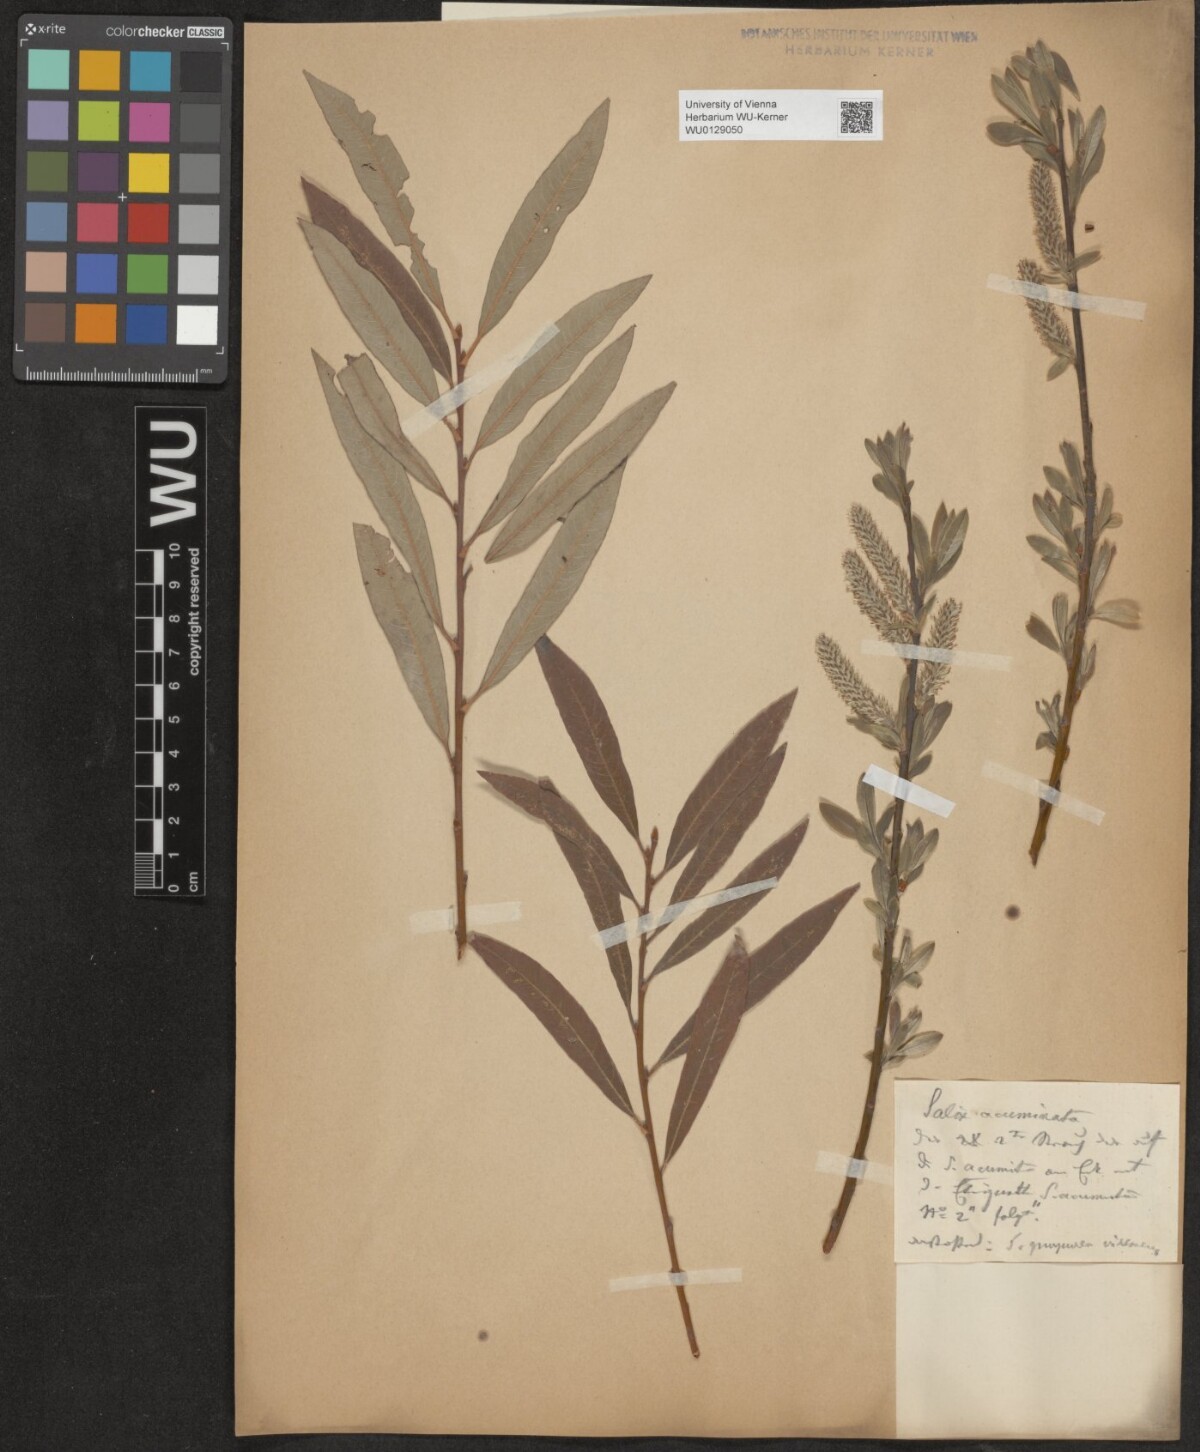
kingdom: Plantae
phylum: Tracheophyta
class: Magnoliopsida
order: Malpighiales
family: Salicaceae
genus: Salix
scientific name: Salix
